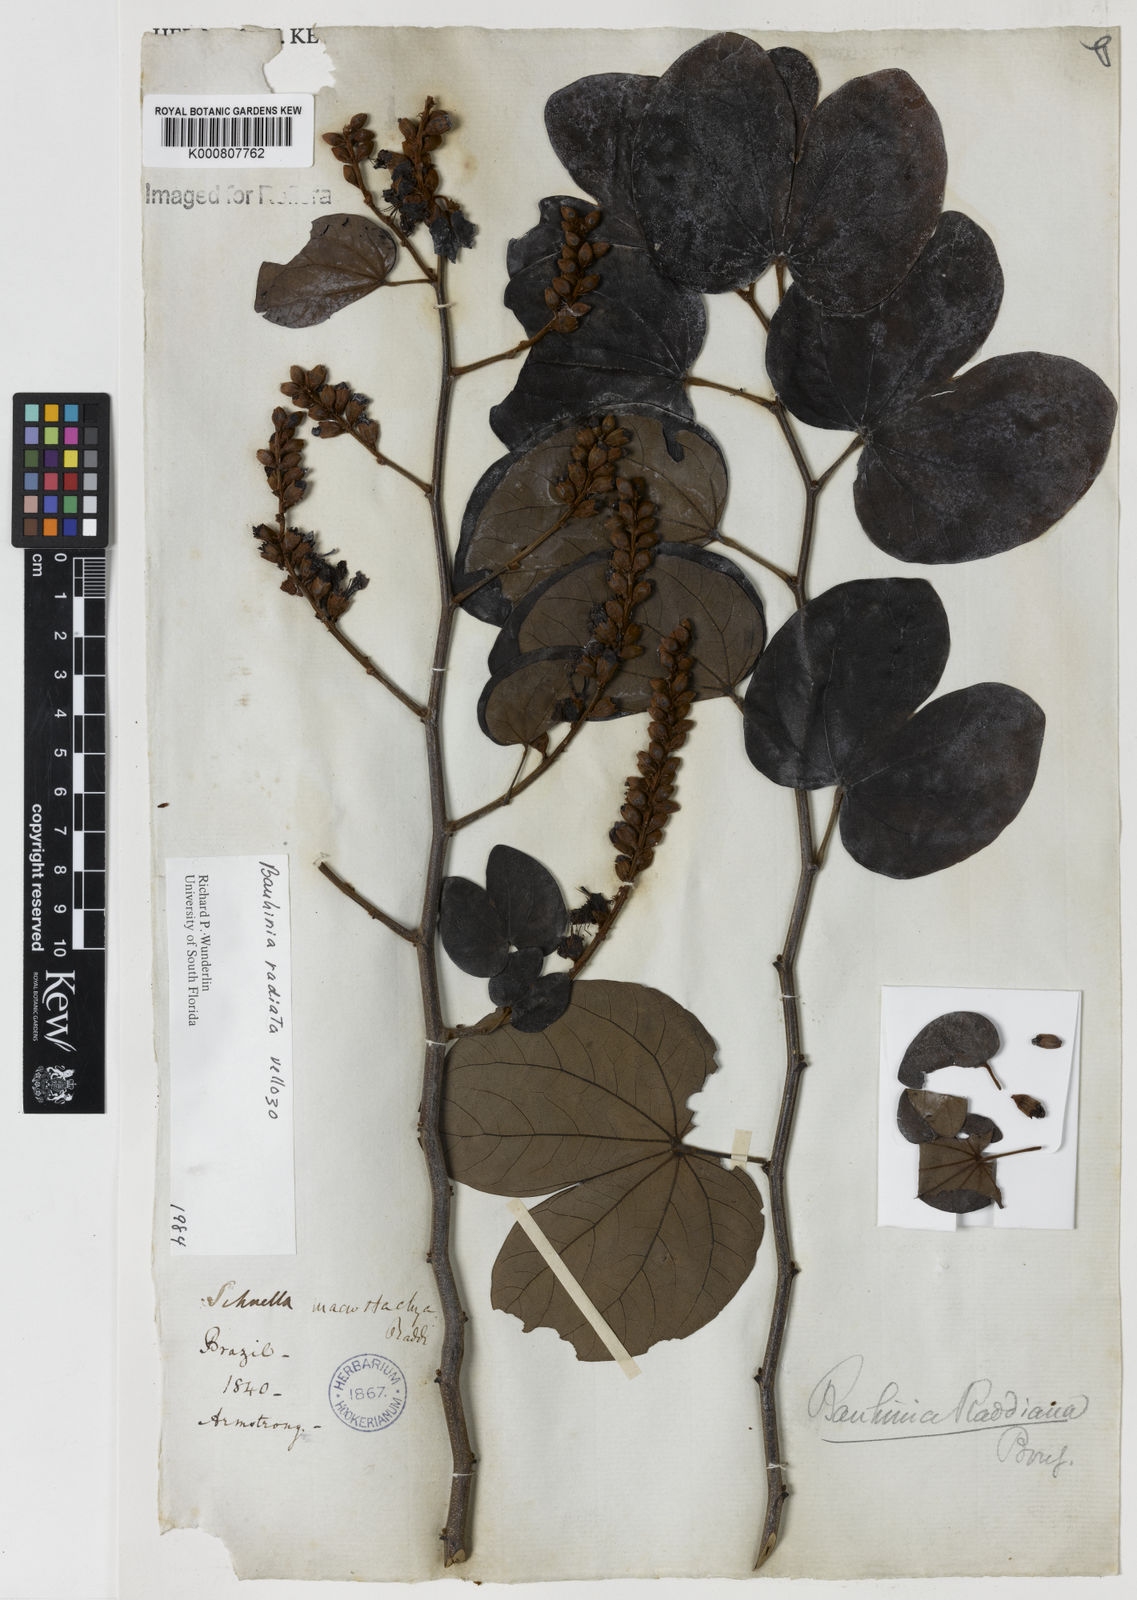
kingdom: Plantae
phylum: Tracheophyta
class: Magnoliopsida
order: Fabales
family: Fabaceae
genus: Schnella
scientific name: Schnella macrostachya
